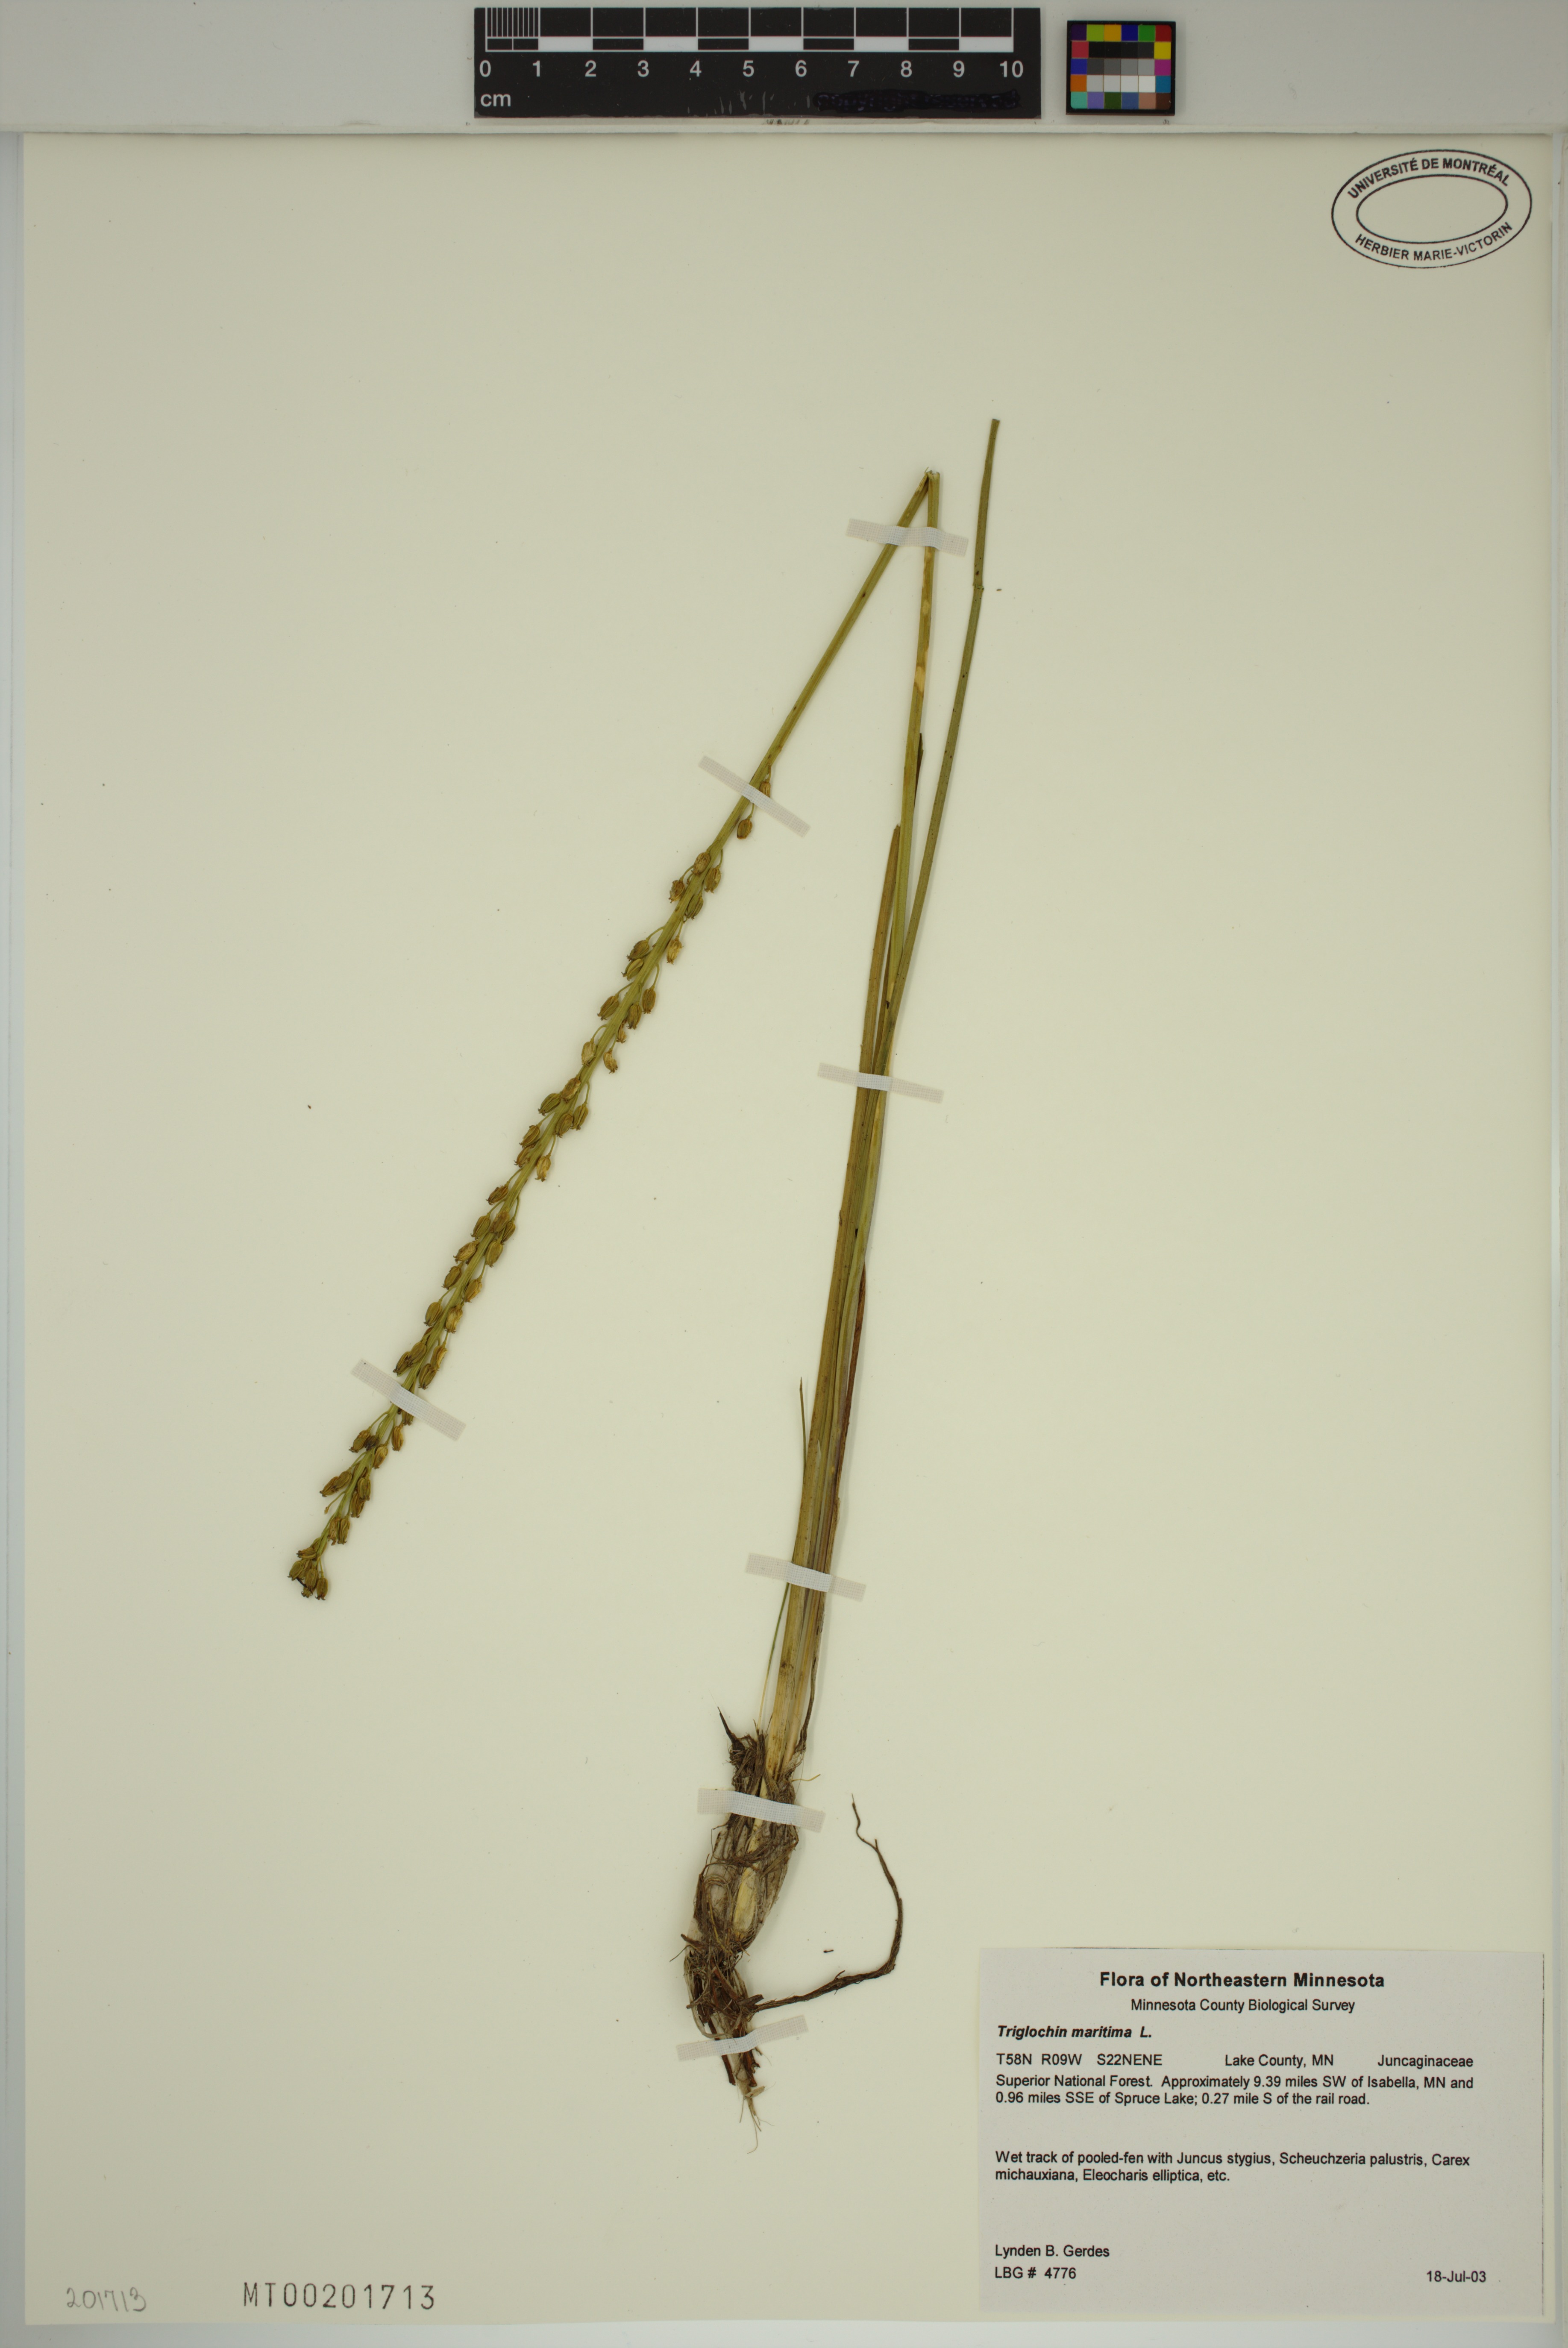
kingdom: Plantae
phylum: Tracheophyta
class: Liliopsida
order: Alismatales
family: Juncaginaceae
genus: Triglochin
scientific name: Triglochin maritima
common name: Sea arrowgrass
